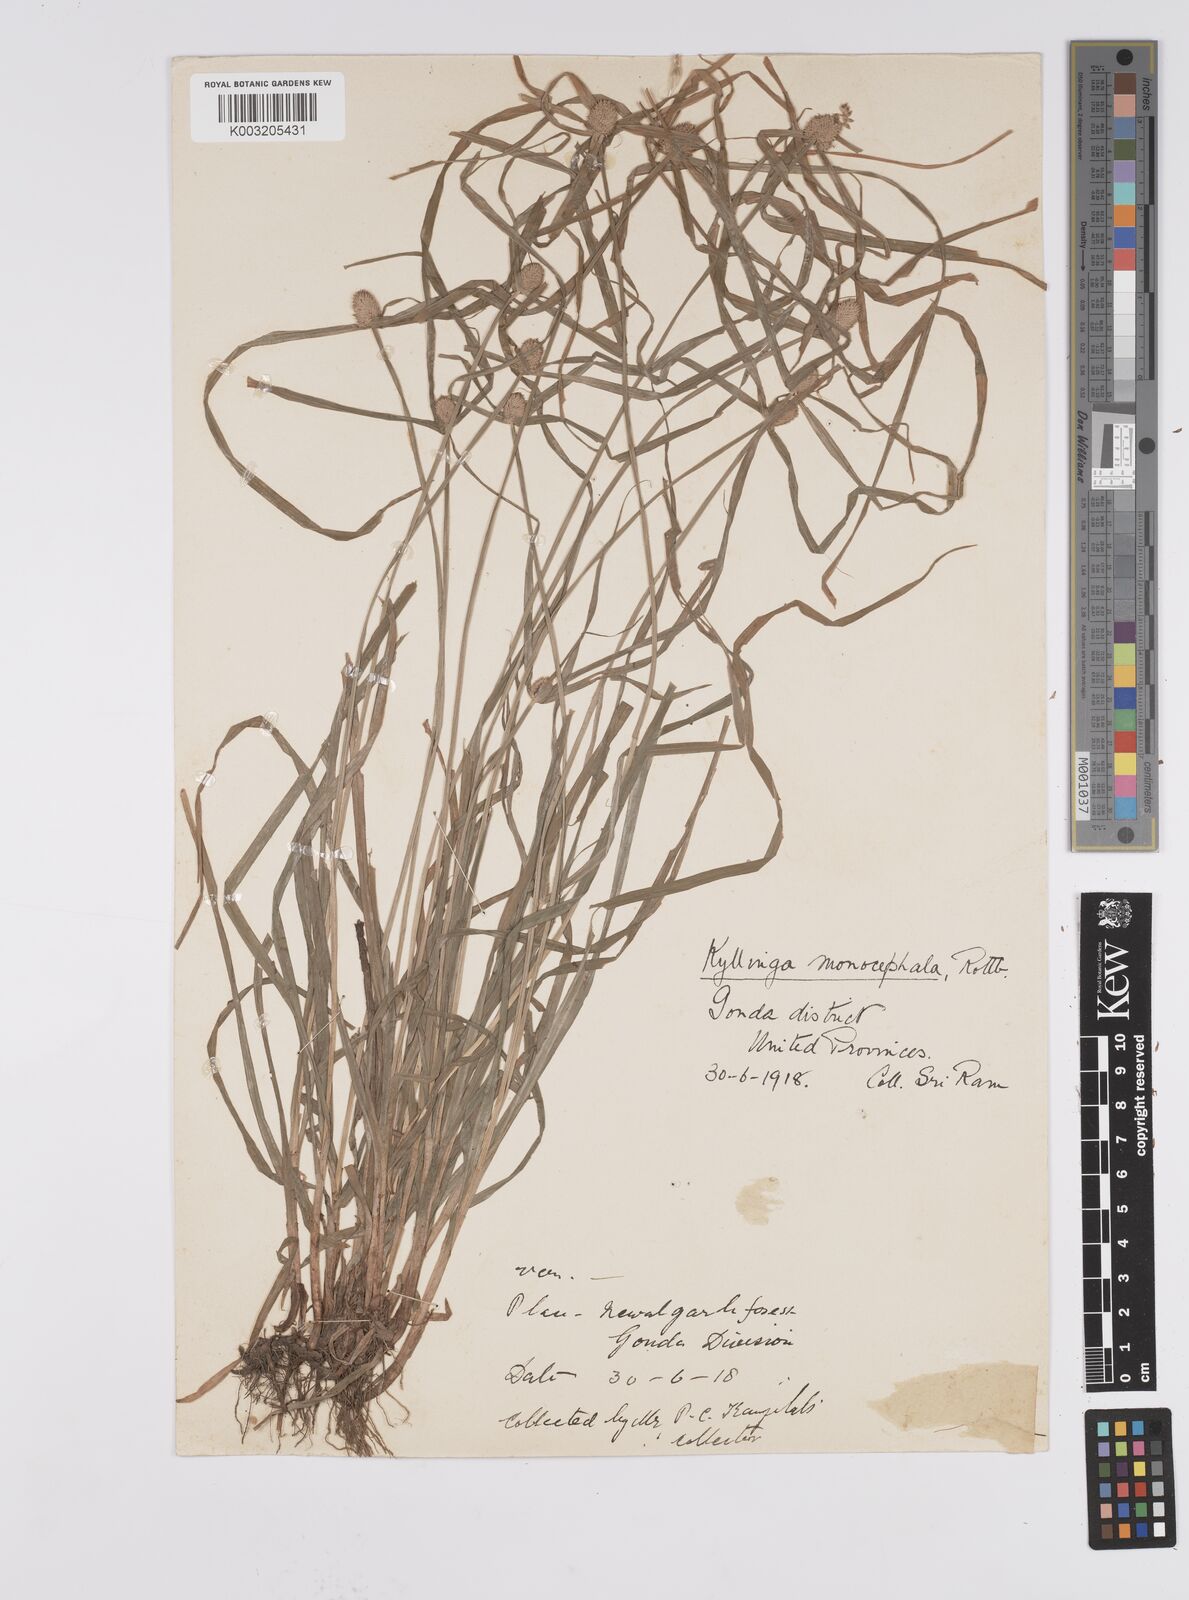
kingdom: Plantae
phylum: Tracheophyta
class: Liliopsida
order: Poales
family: Cyperaceae
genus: Cyperus
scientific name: Cyperus nemoralis
